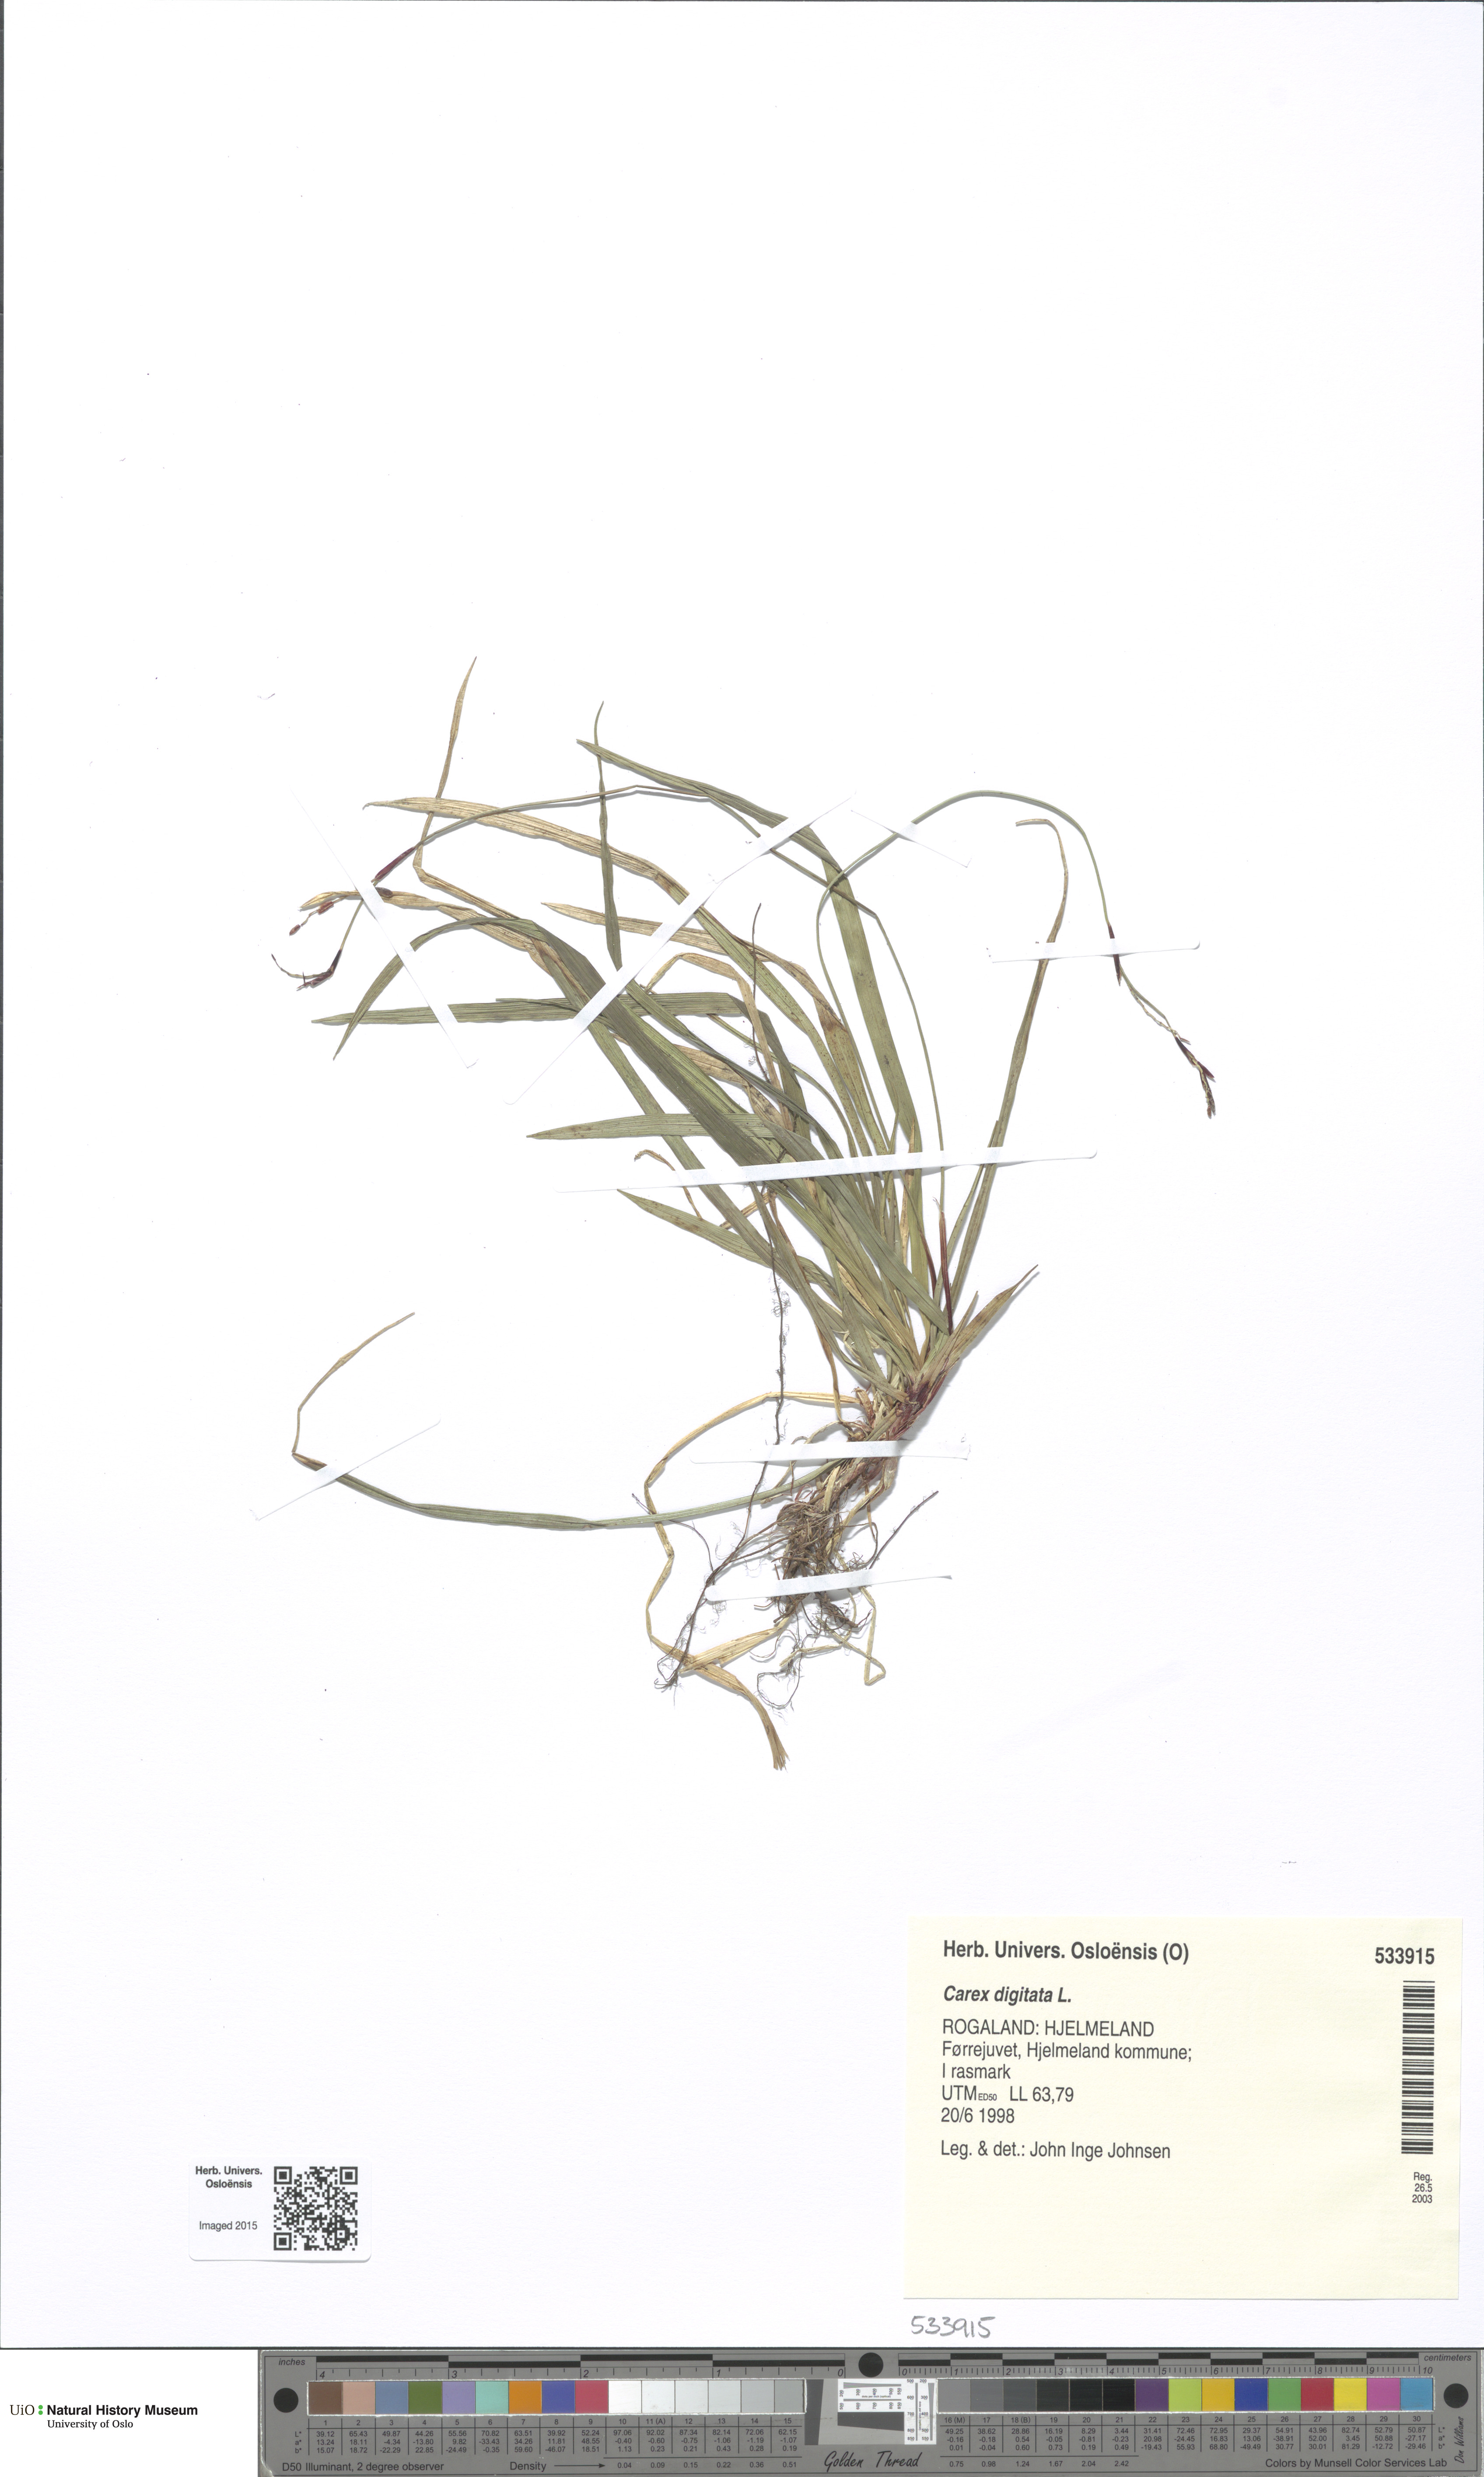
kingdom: Plantae
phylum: Tracheophyta
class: Liliopsida
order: Poales
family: Cyperaceae
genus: Carex
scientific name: Carex digitata
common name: Fingered sedge
